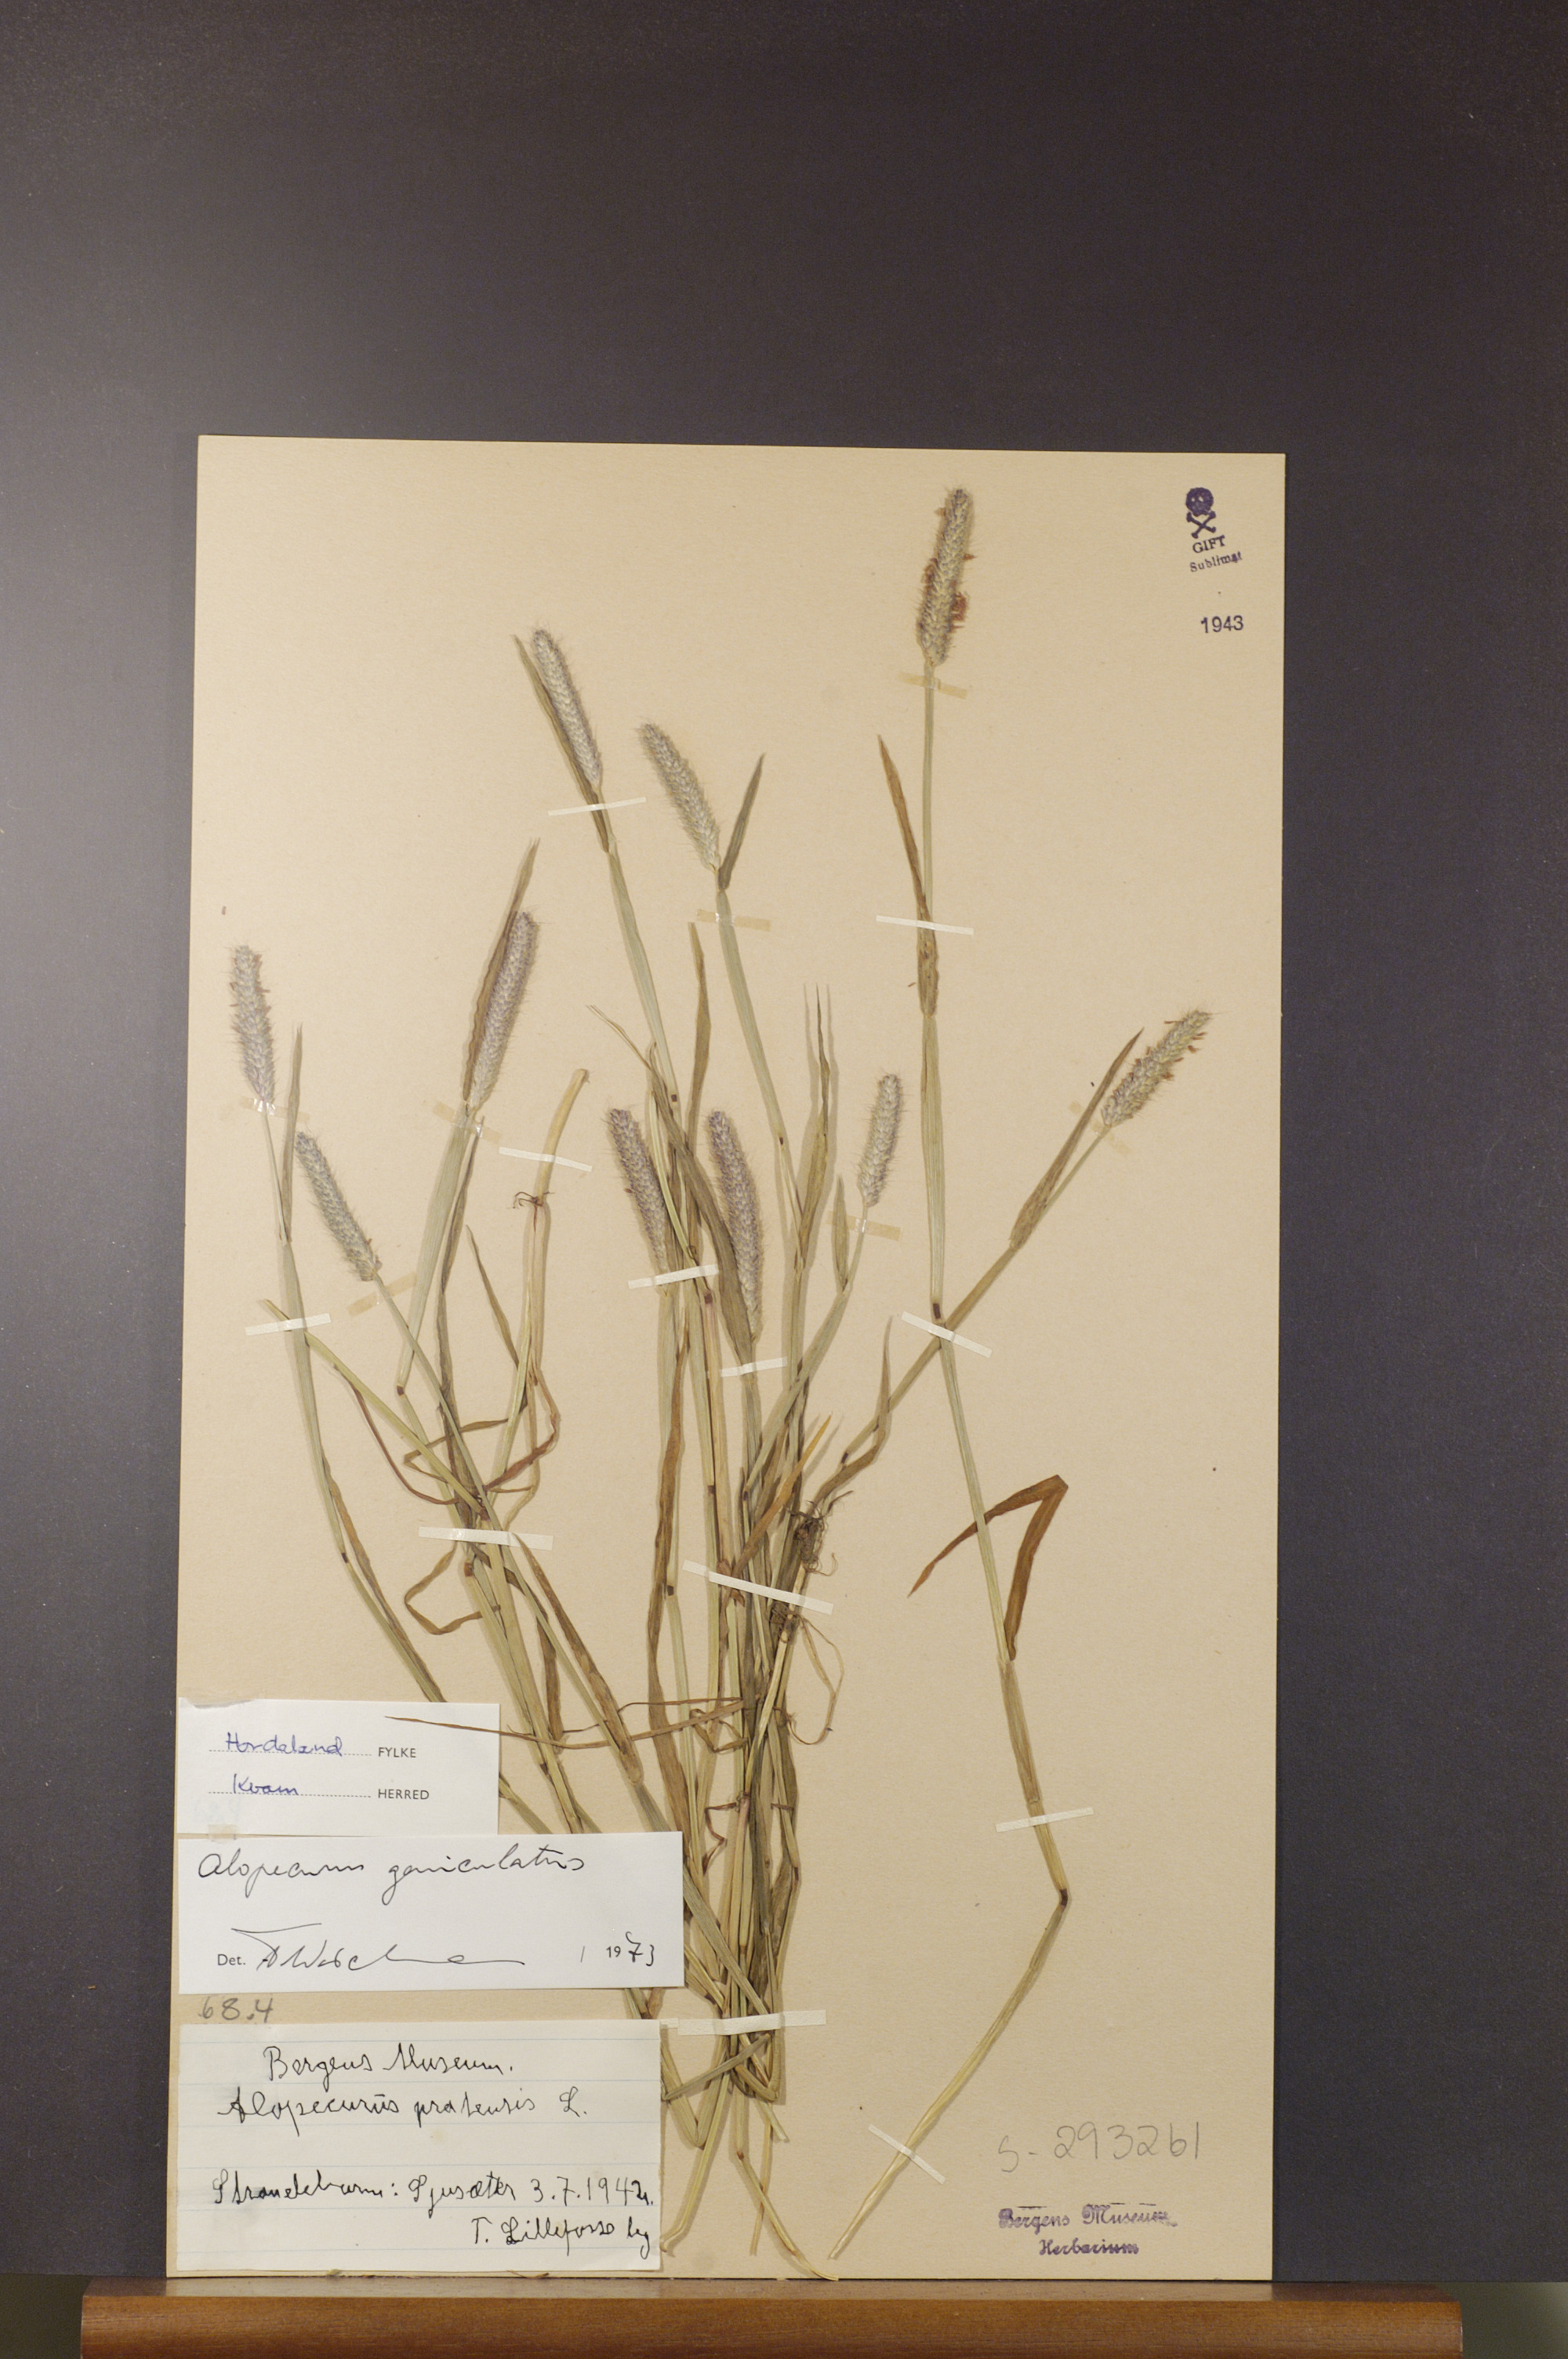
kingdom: Plantae
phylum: Tracheophyta
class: Liliopsida
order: Poales
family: Poaceae
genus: Alopecurus
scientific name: Alopecurus geniculatus
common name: Water foxtail
